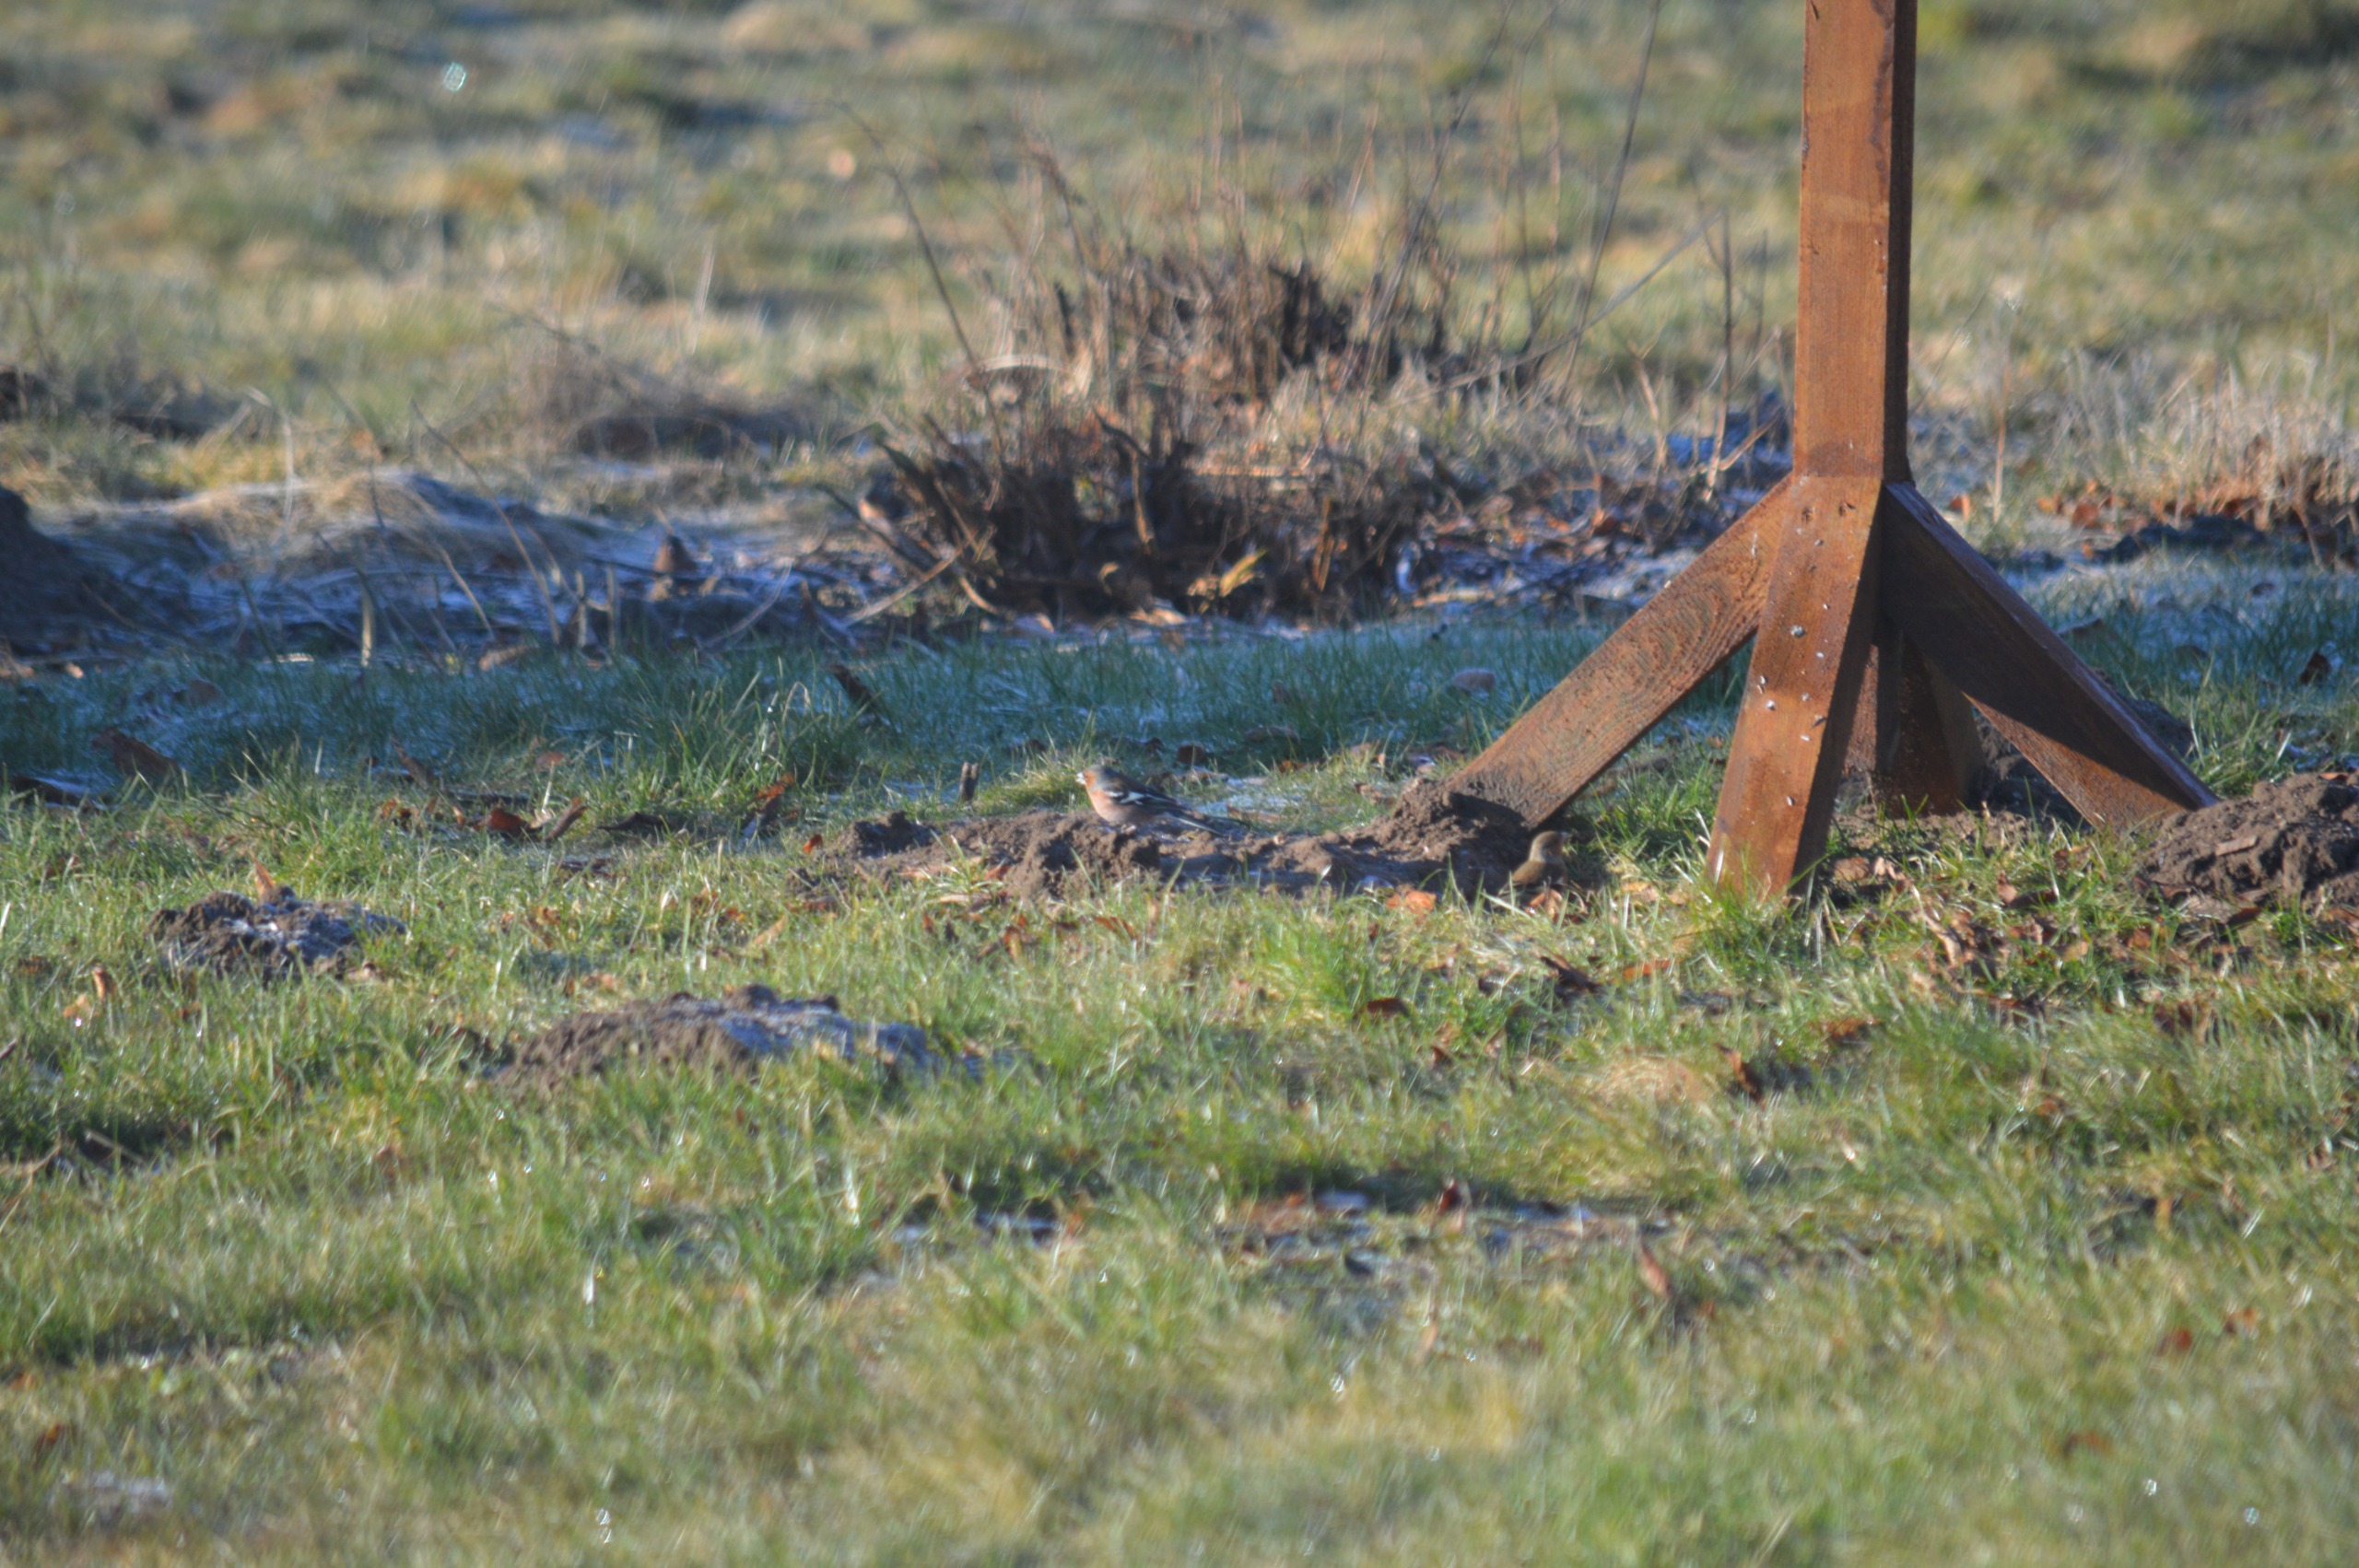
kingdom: Animalia
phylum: Chordata
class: Aves
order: Passeriformes
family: Fringillidae
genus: Fringilla
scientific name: Fringilla coelebs
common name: Bogfinke
